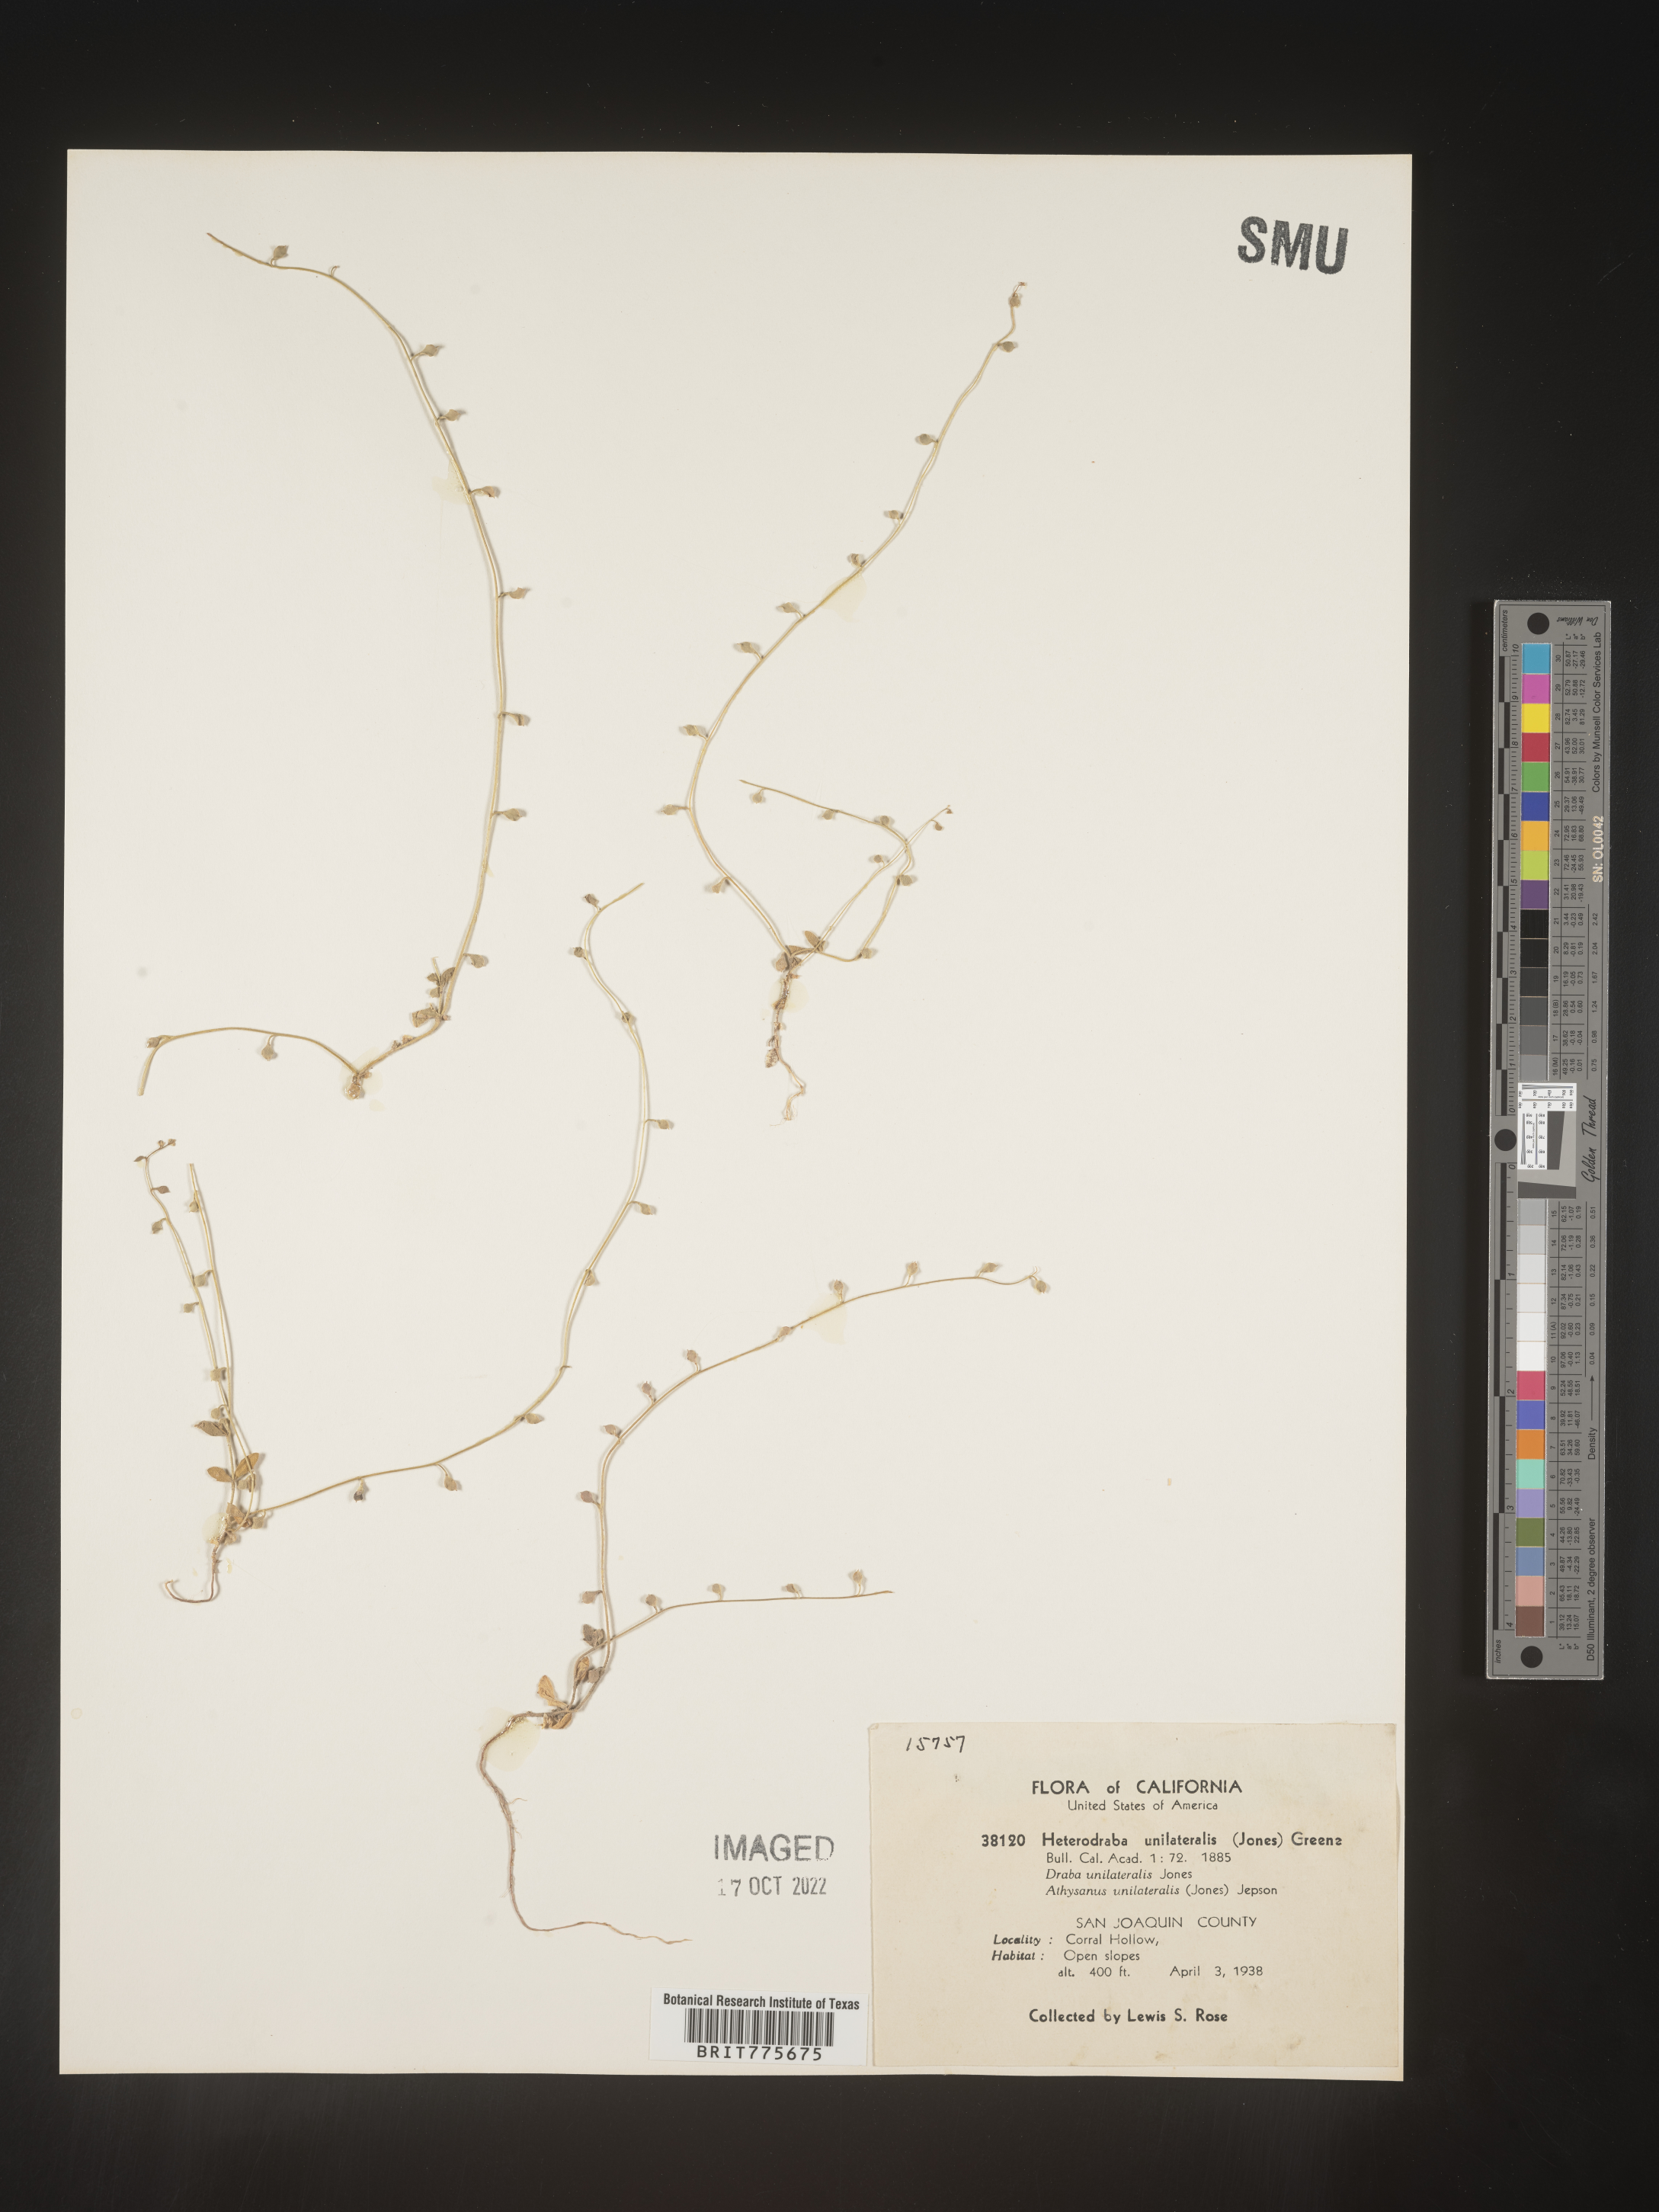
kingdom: Plantae
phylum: Tracheophyta
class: Magnoliopsida
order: Brassicales
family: Brassicaceae
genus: Athysanus
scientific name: Athysanus unilateralis
